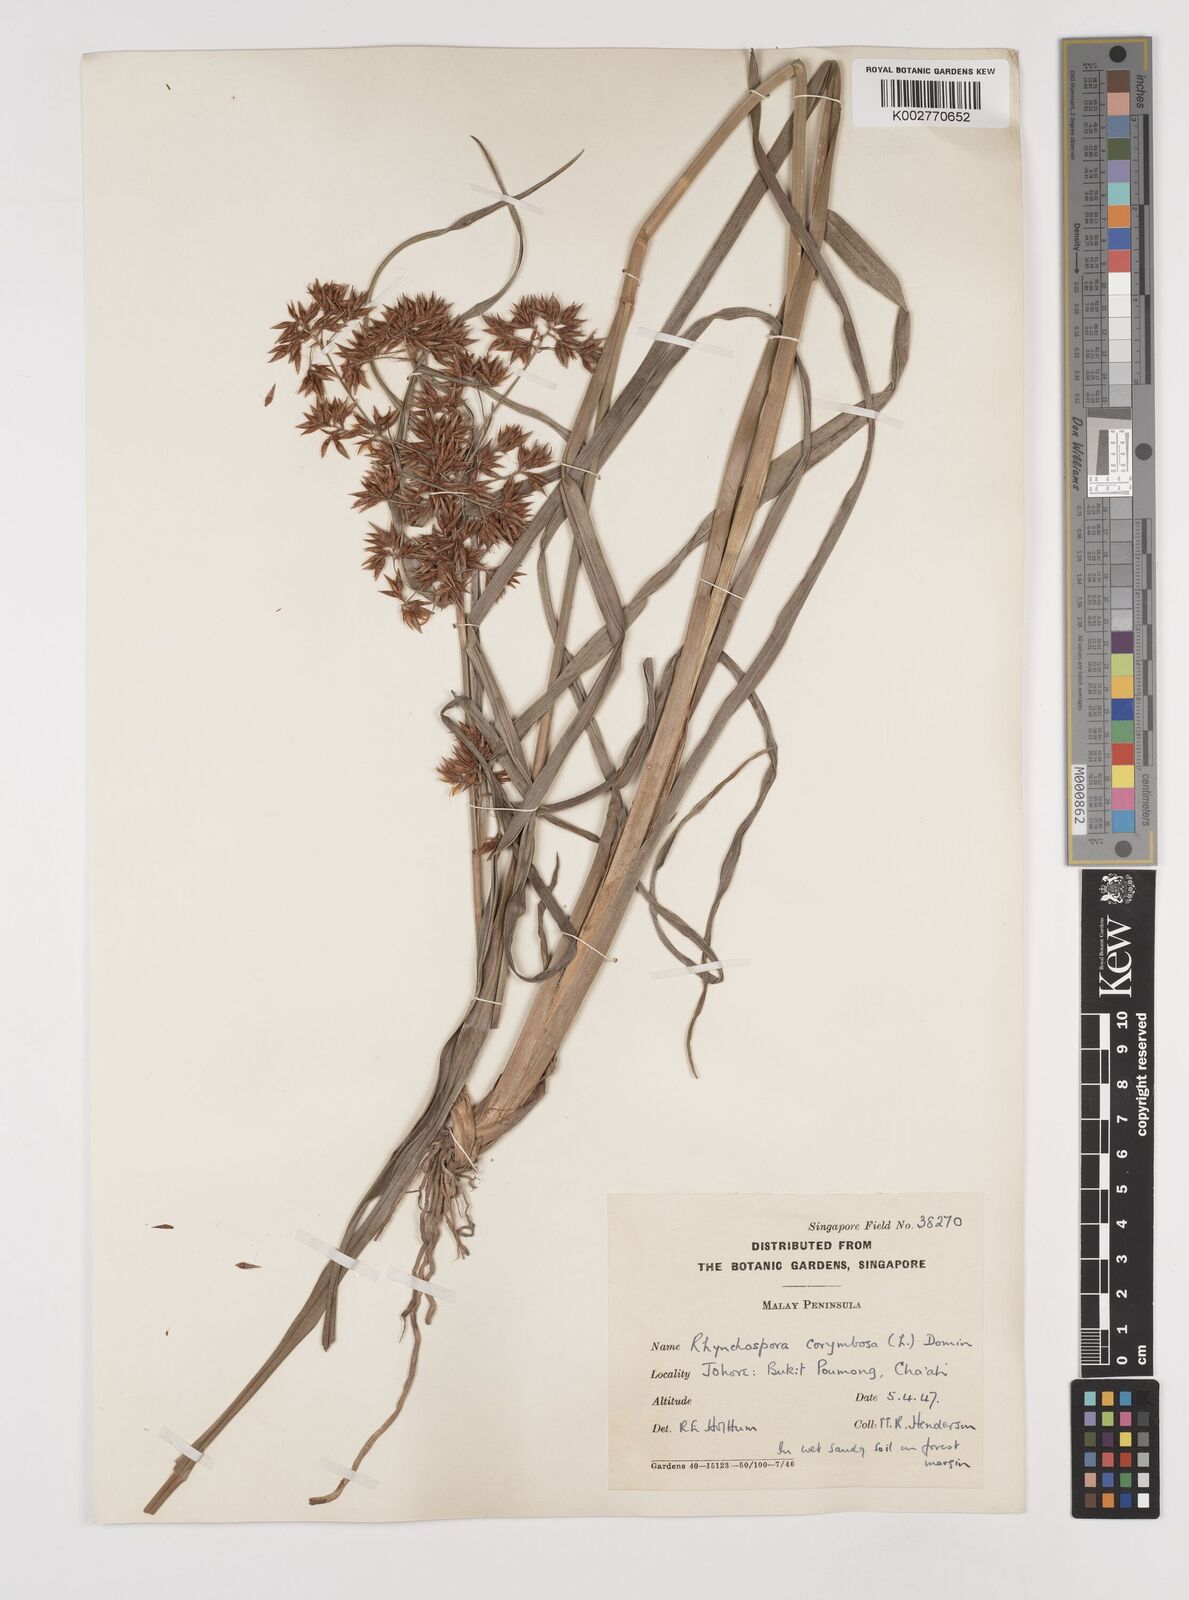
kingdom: Plantae
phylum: Tracheophyta
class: Liliopsida
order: Poales
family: Cyperaceae
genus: Rhynchospora
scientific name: Rhynchospora corymbosa
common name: Golden beak sedge
